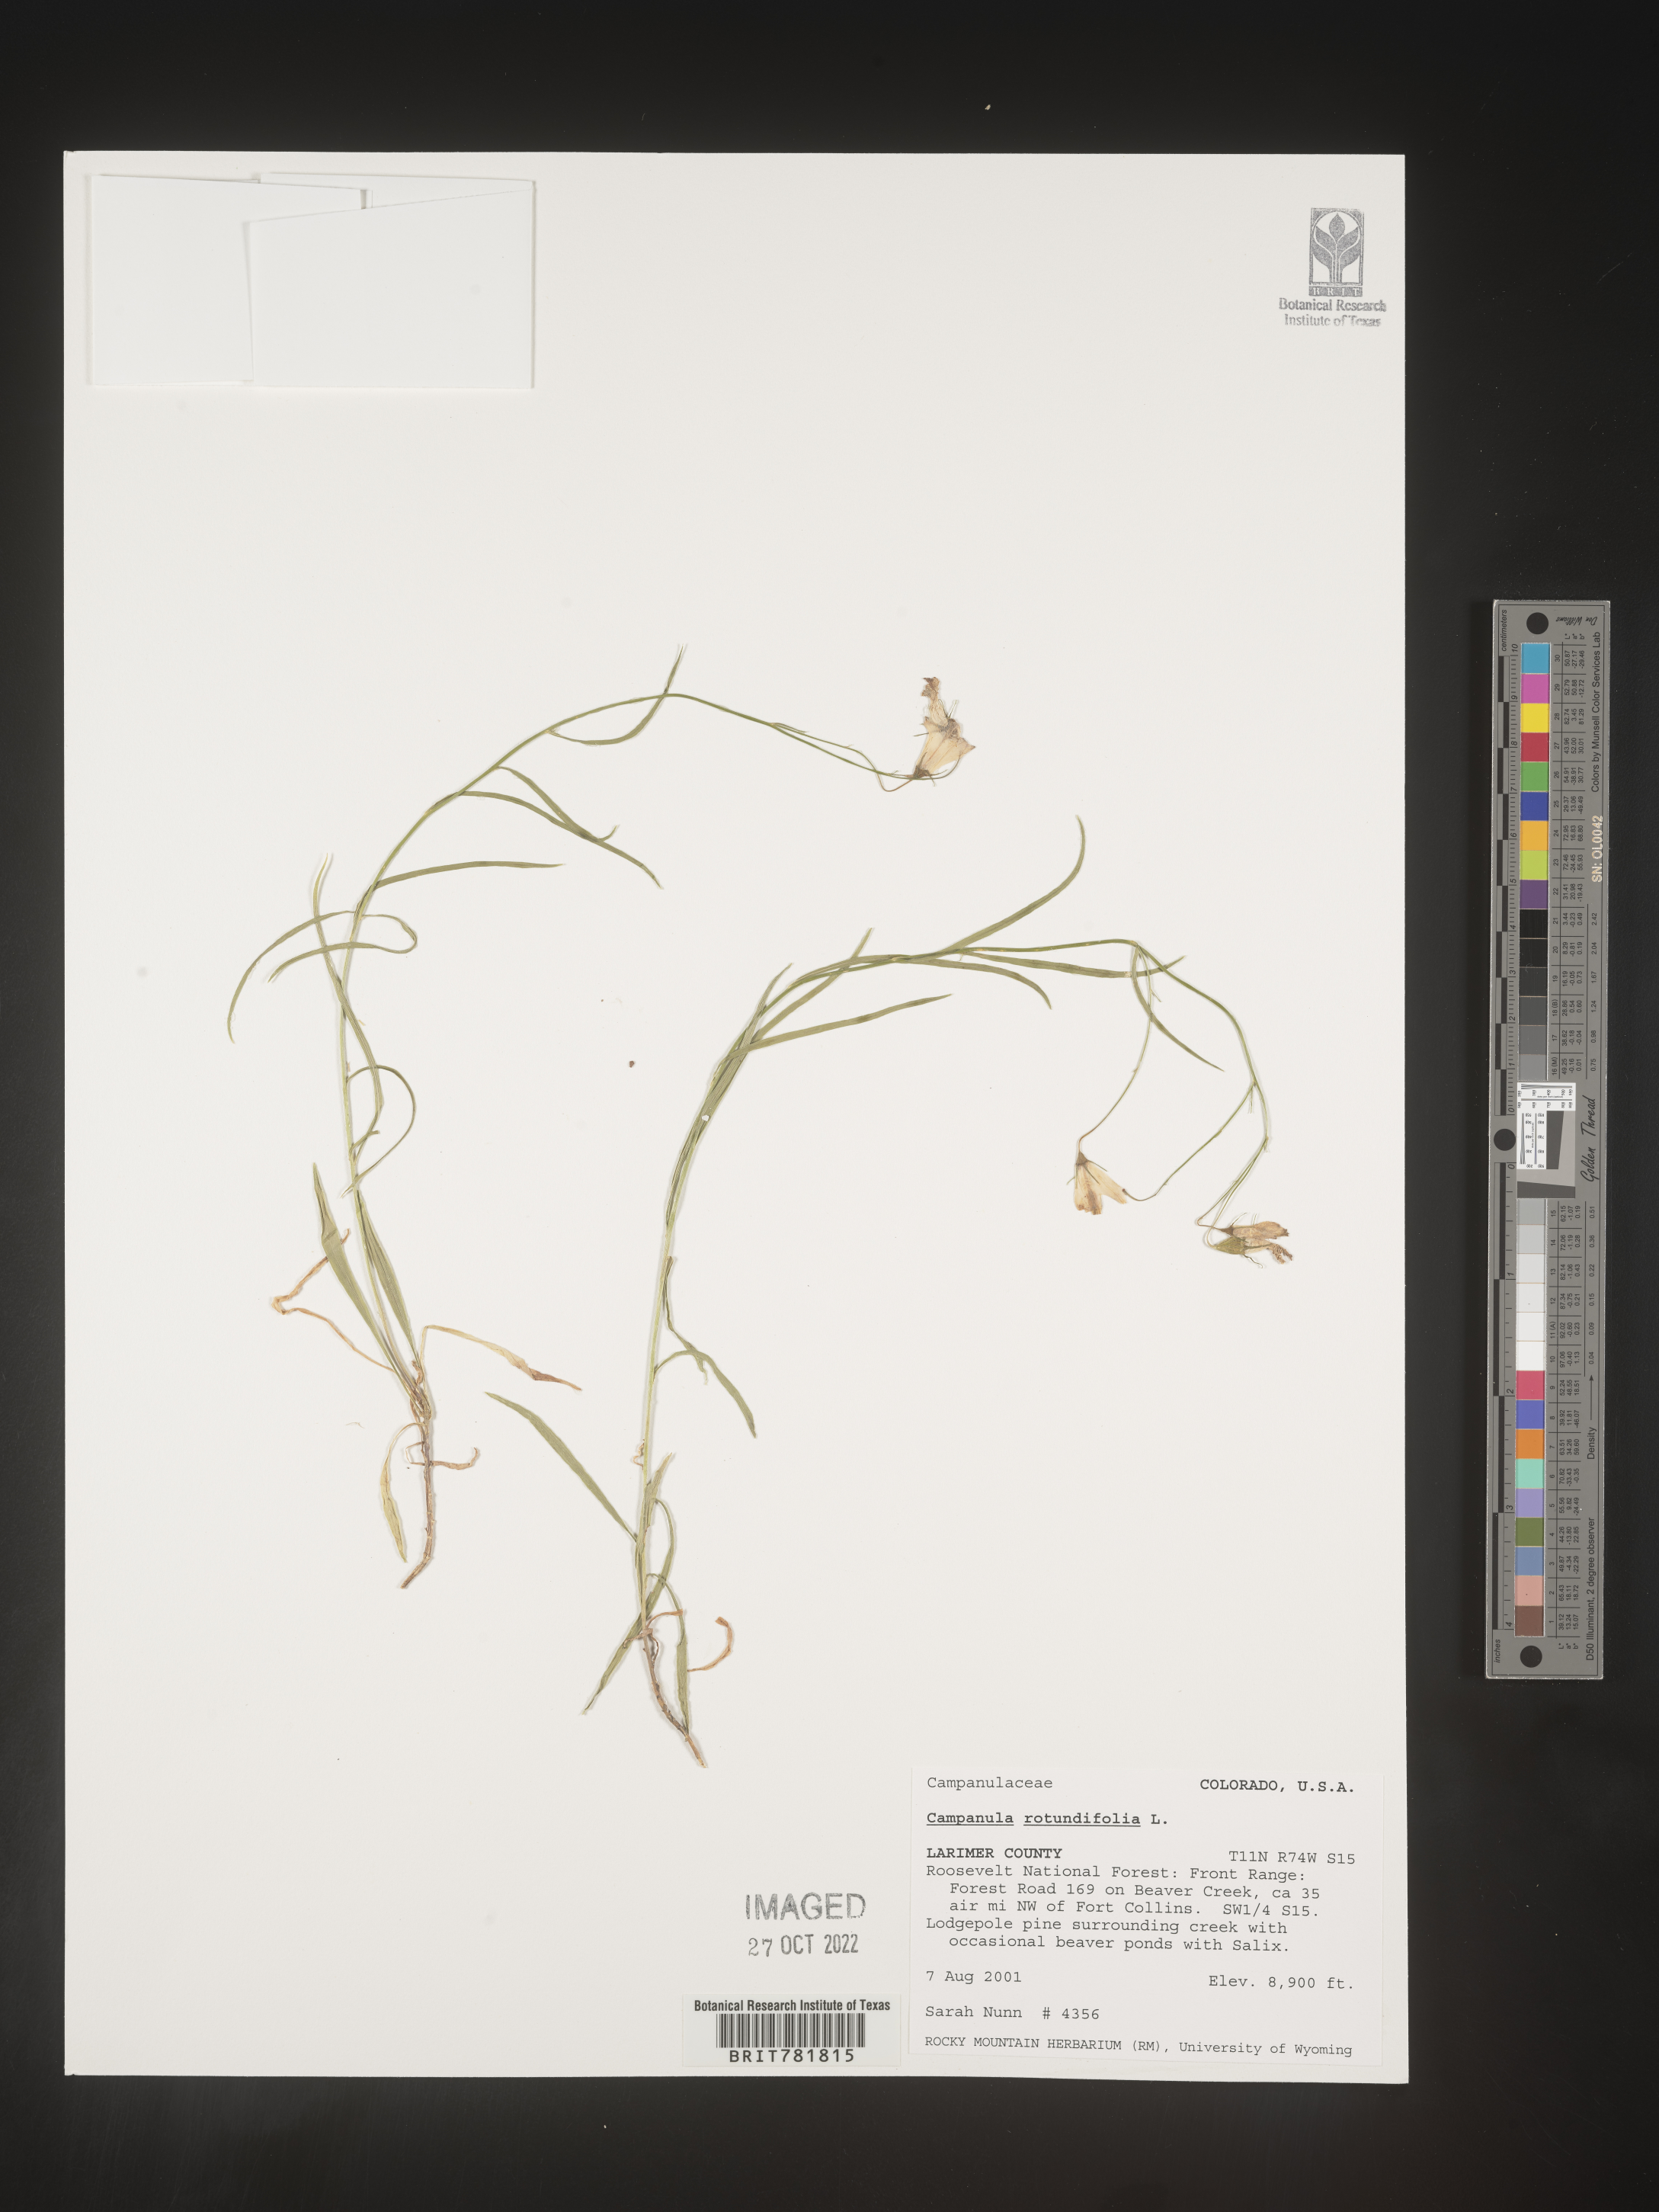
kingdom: Plantae
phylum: Tracheophyta
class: Magnoliopsida
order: Asterales
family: Campanulaceae
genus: Campanula
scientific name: Campanula rotundifolia
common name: Harebell
